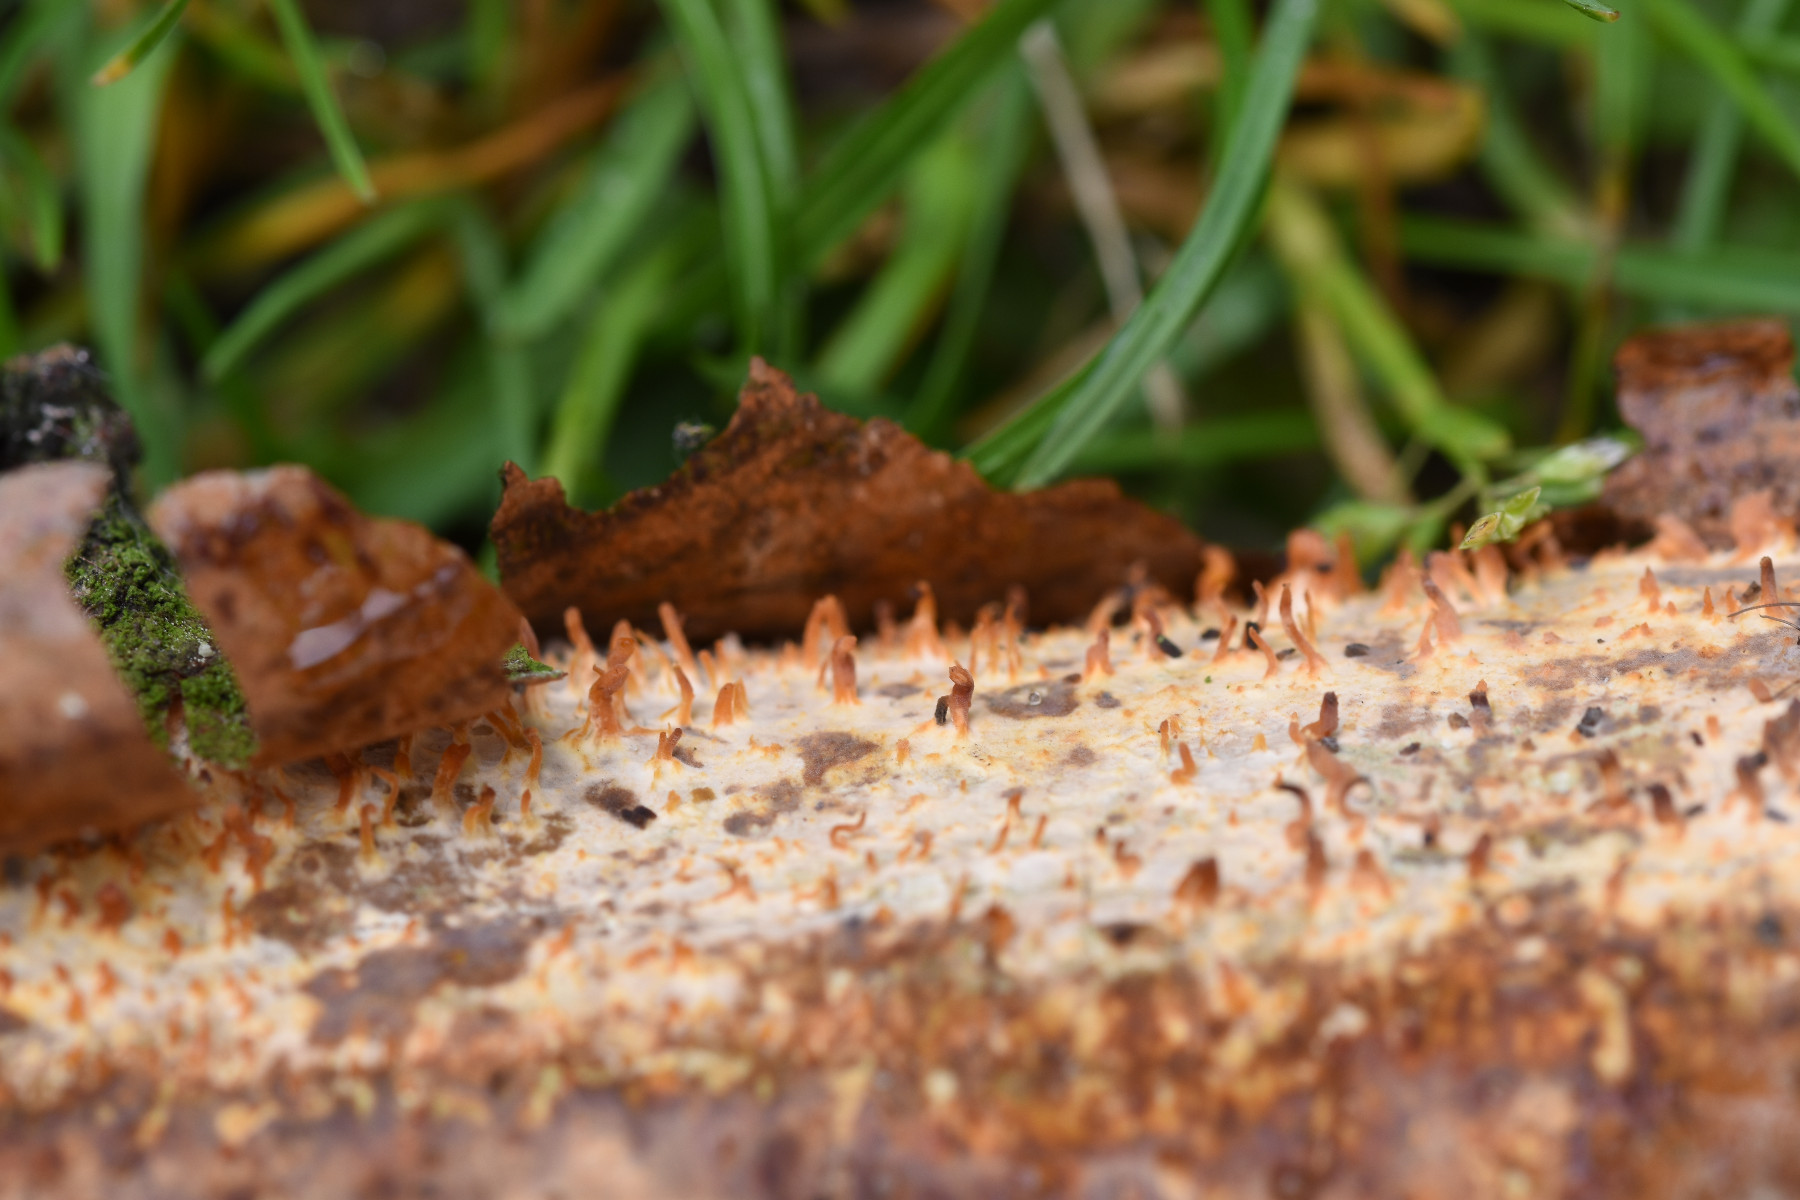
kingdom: Fungi
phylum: Basidiomycota
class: Agaricomycetes
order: Russulales
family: Peniophoraceae
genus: Peniophora
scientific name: Peniophora laeta
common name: tandet voksskind
